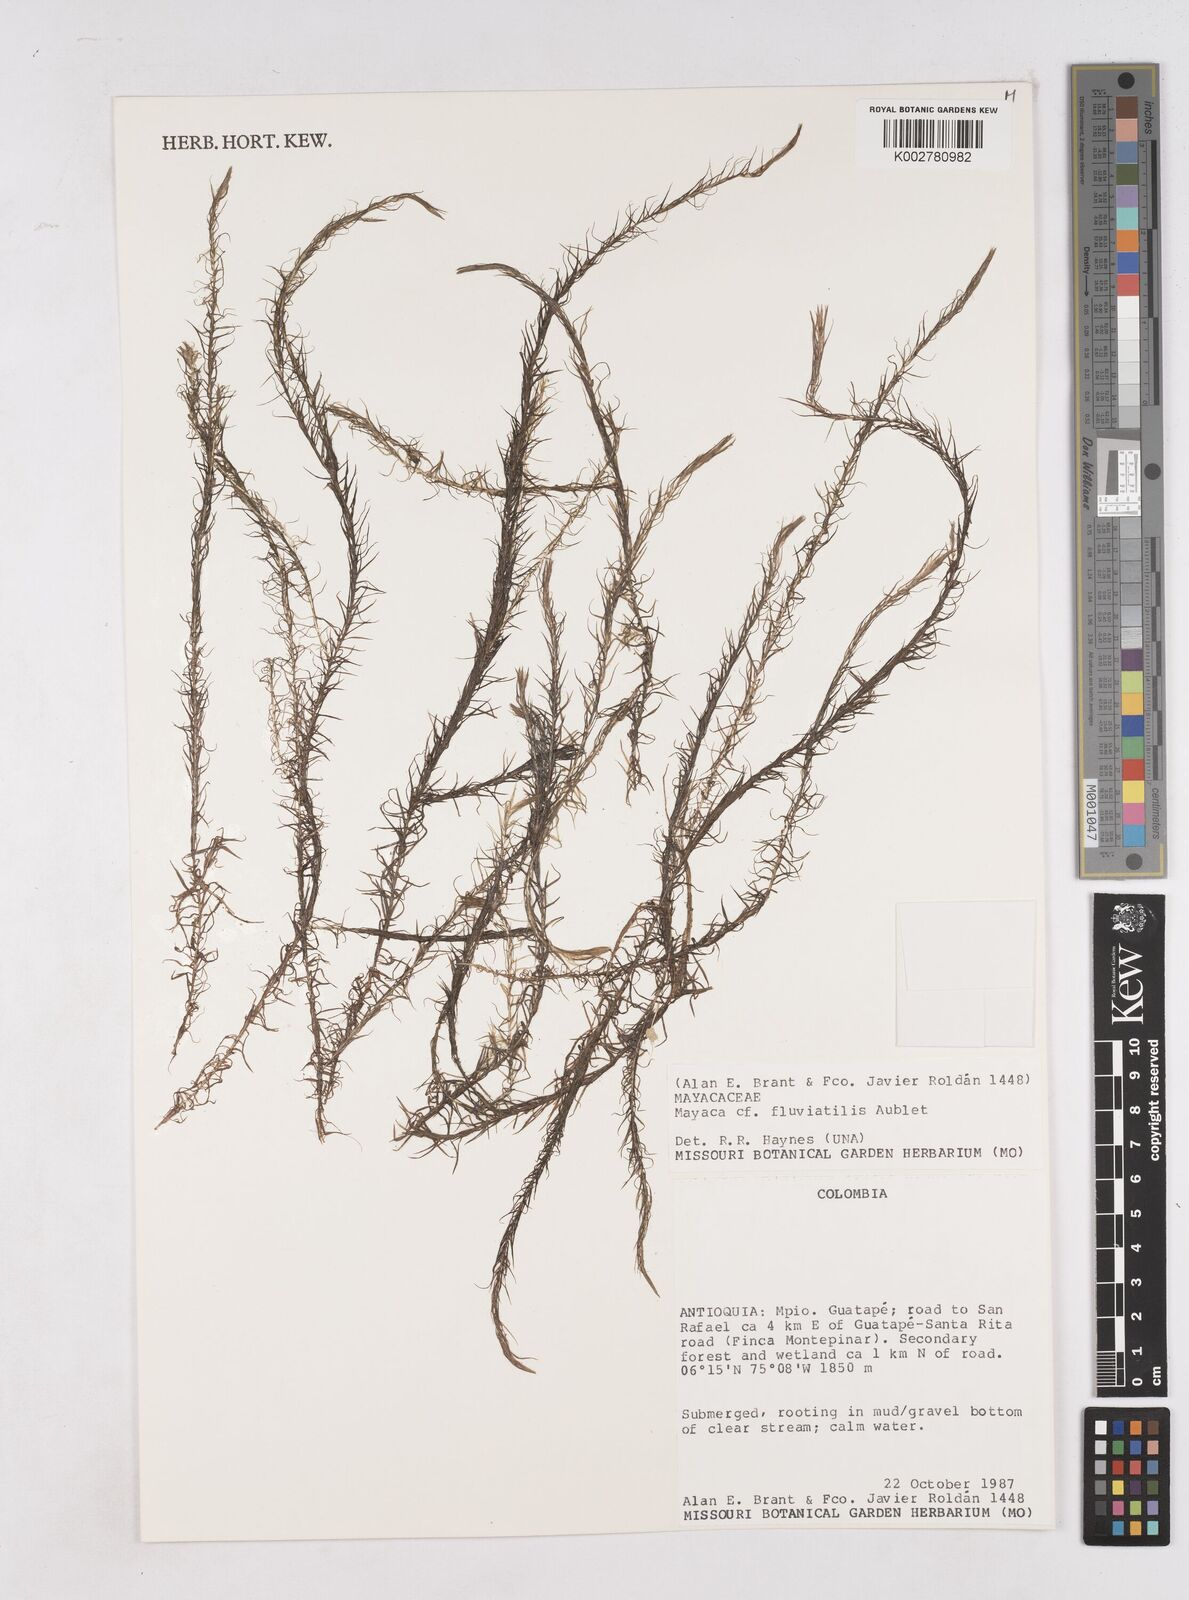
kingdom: Plantae
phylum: Tracheophyta
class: Liliopsida
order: Poales
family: Mayacaceae
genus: Mayaca
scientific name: Mayaca fluviatilis
